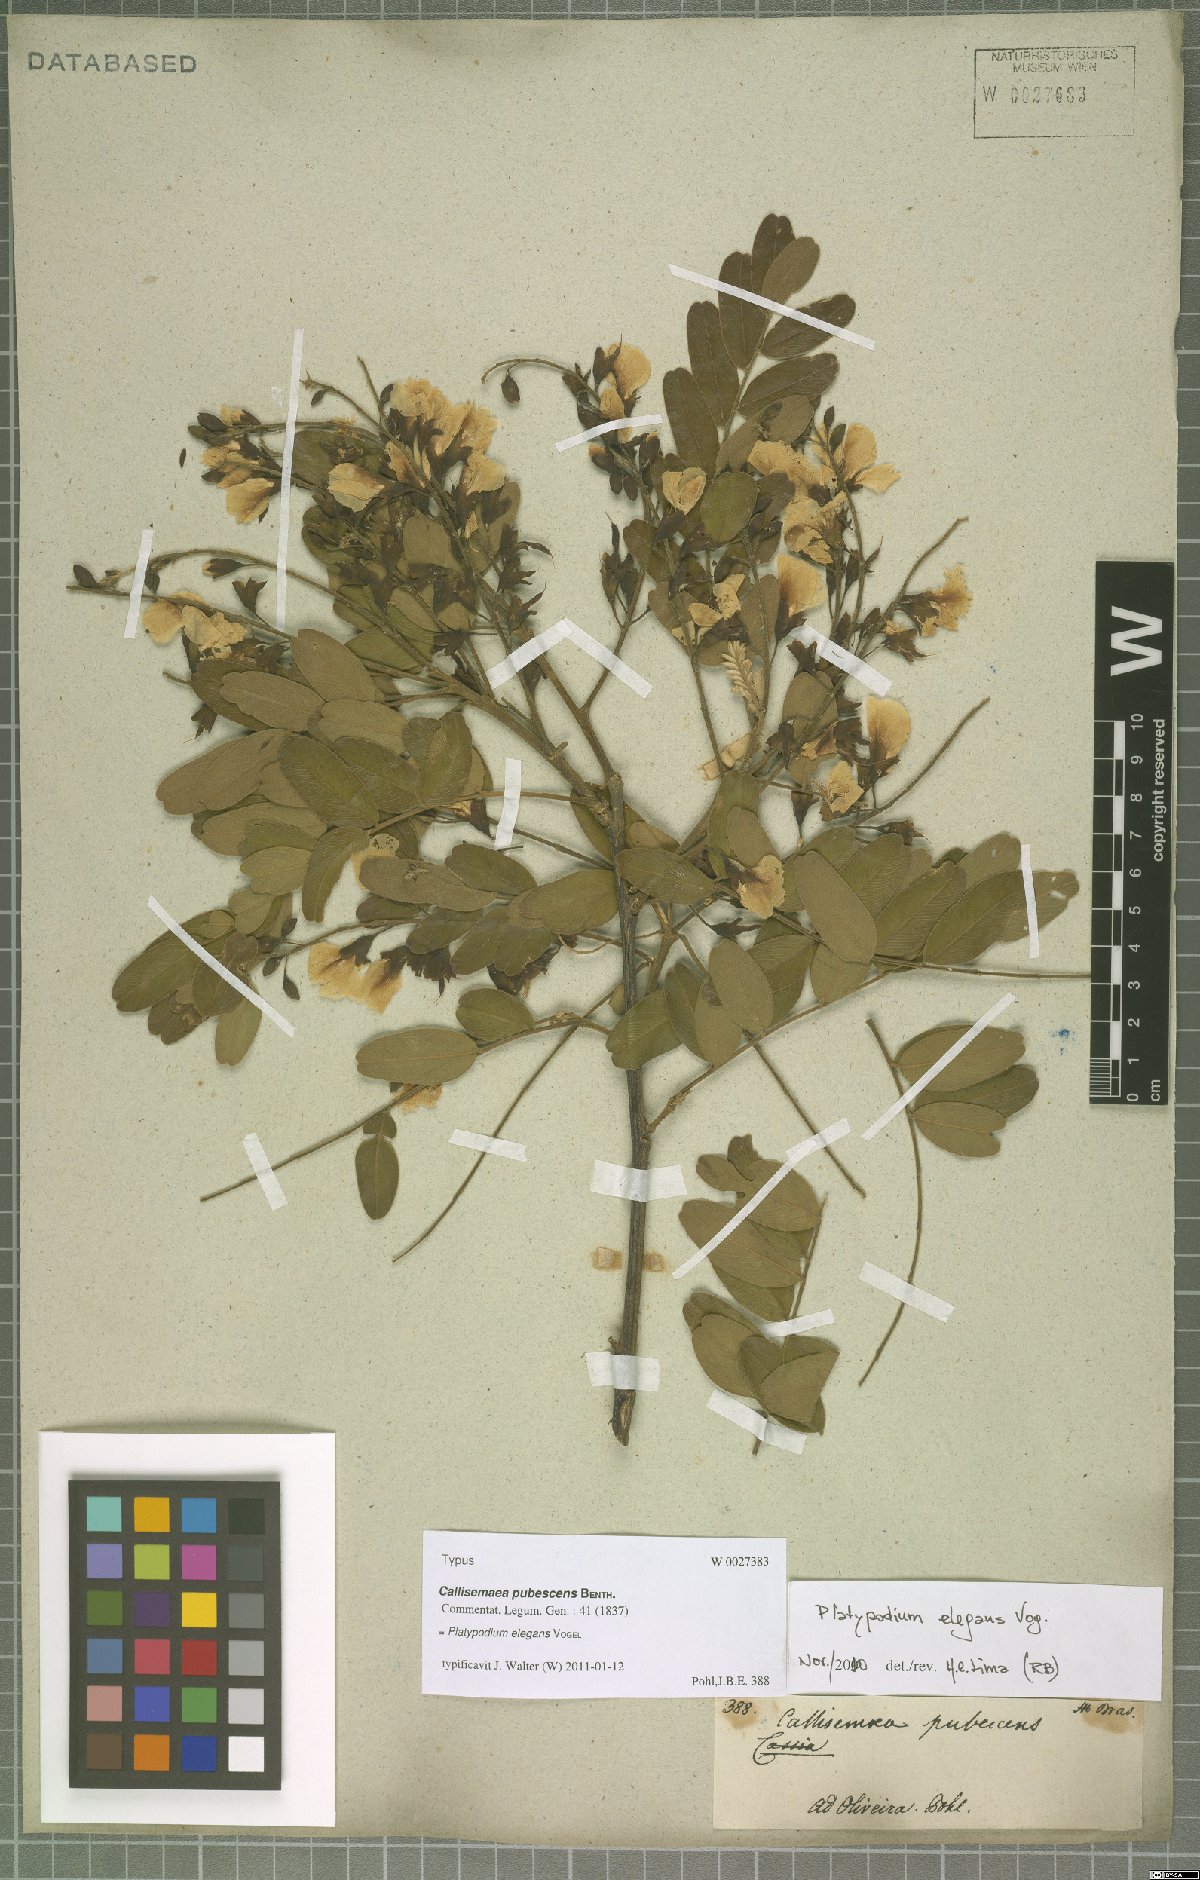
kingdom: Plantae
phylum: Tracheophyta
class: Magnoliopsida
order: Fabales
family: Fabaceae
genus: Platypodium
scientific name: Platypodium elegans
